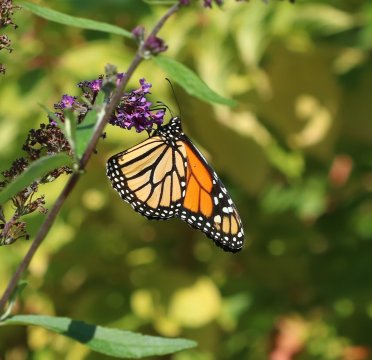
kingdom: Animalia
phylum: Arthropoda
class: Insecta
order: Lepidoptera
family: Nymphalidae
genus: Danaus
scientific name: Danaus plexippus
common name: Monarch
